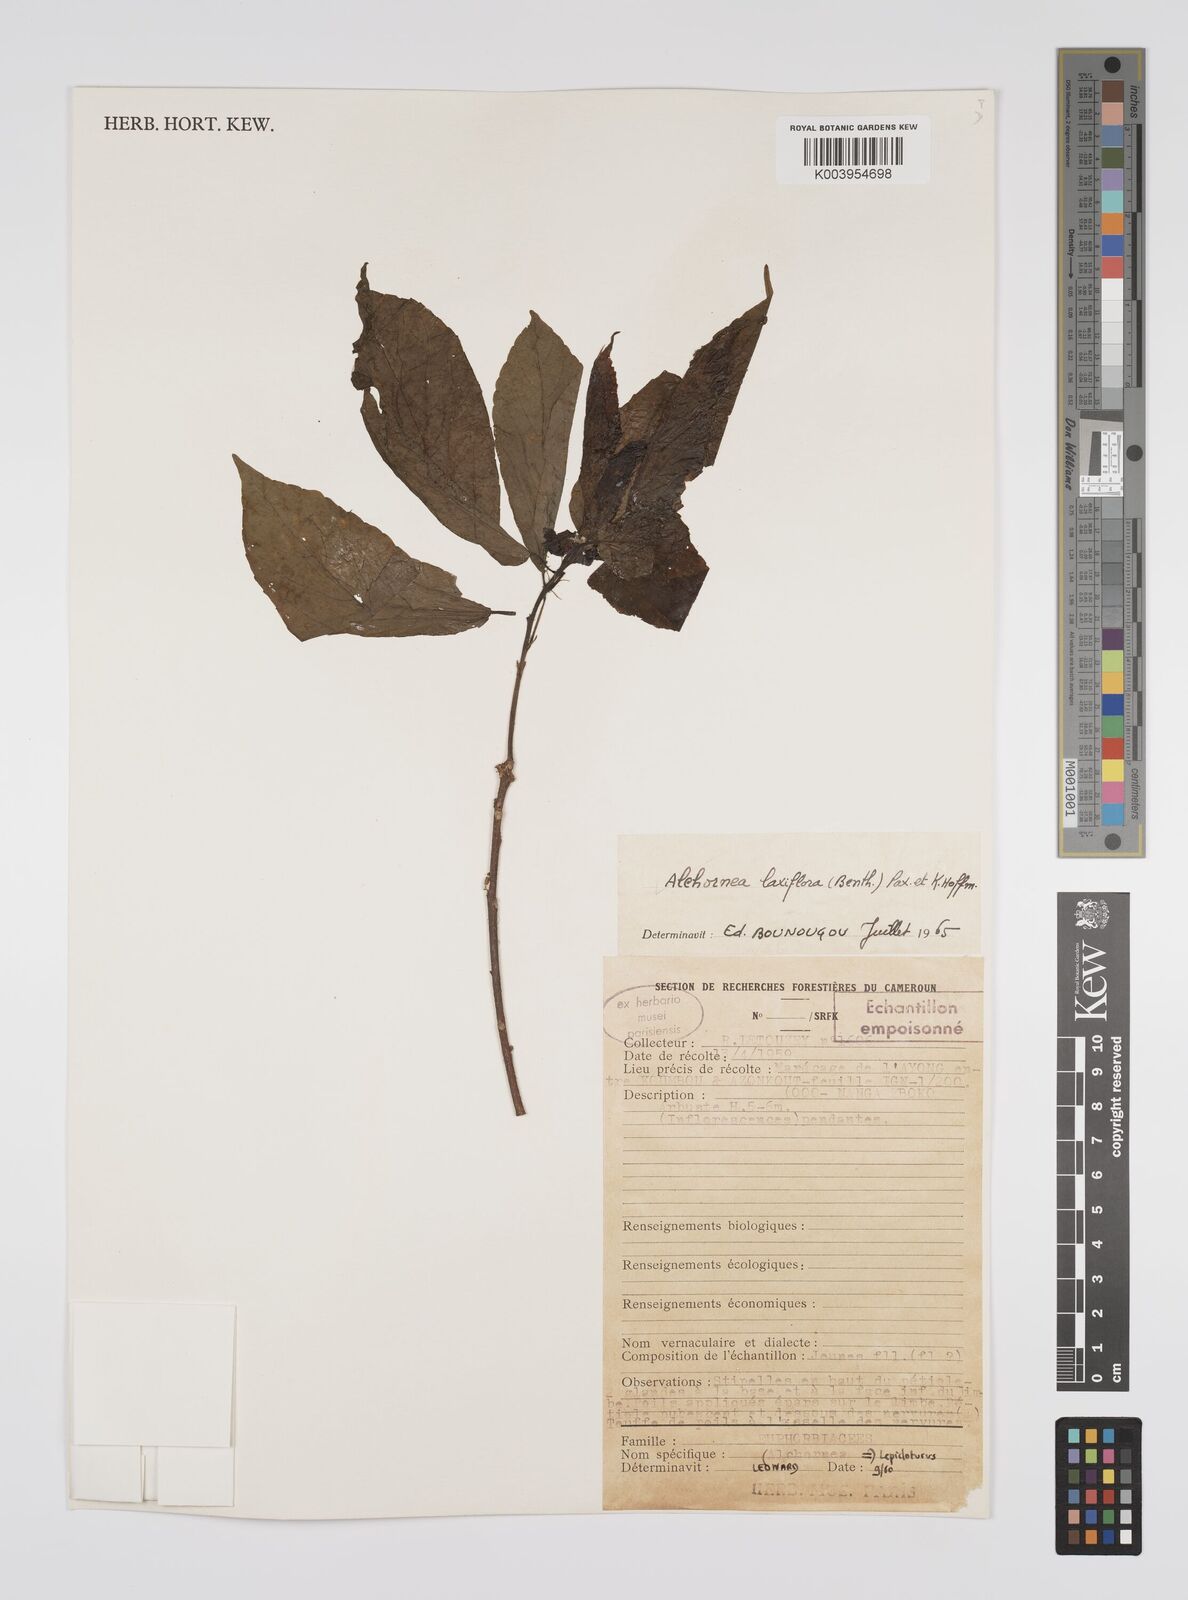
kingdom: Plantae
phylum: Tracheophyta
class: Magnoliopsida
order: Malpighiales
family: Euphorbiaceae
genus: Alchornea
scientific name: Alchornea laxiflora
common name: Lowveld bead-string
